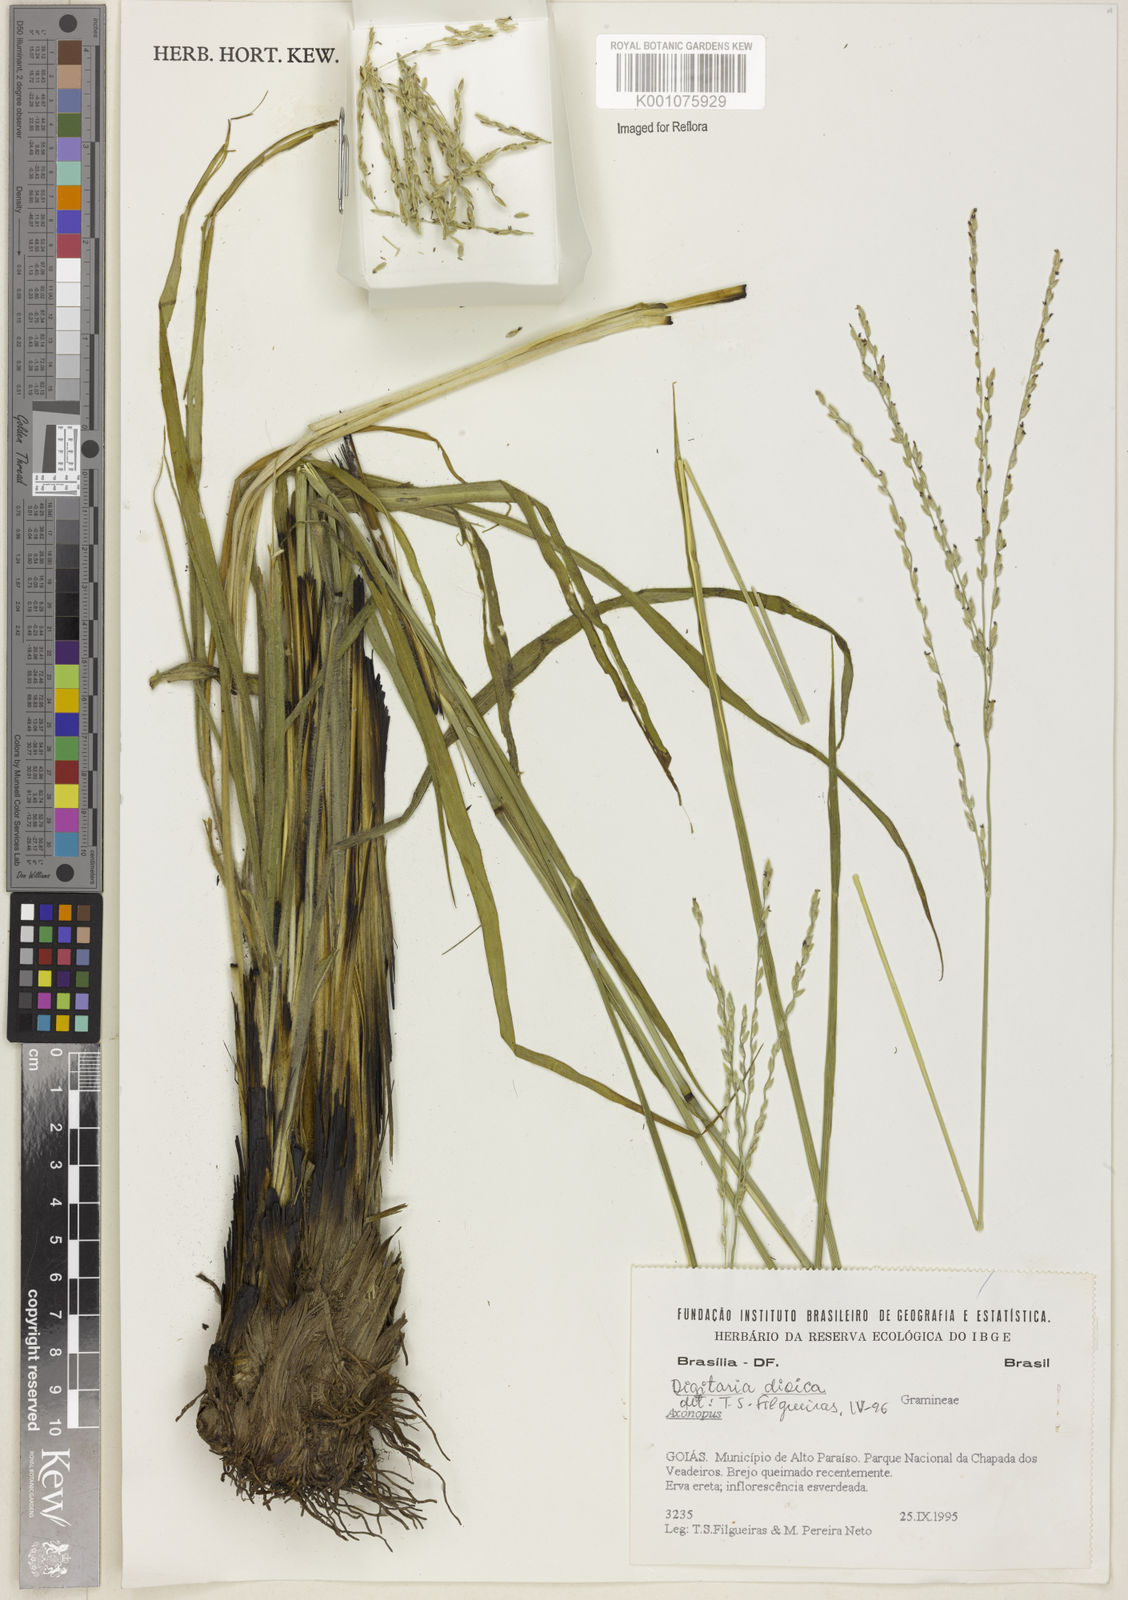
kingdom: Plantae
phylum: Tracheophyta
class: Liliopsida
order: Poales
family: Poaceae
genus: Digitaria
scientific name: Digitaria
